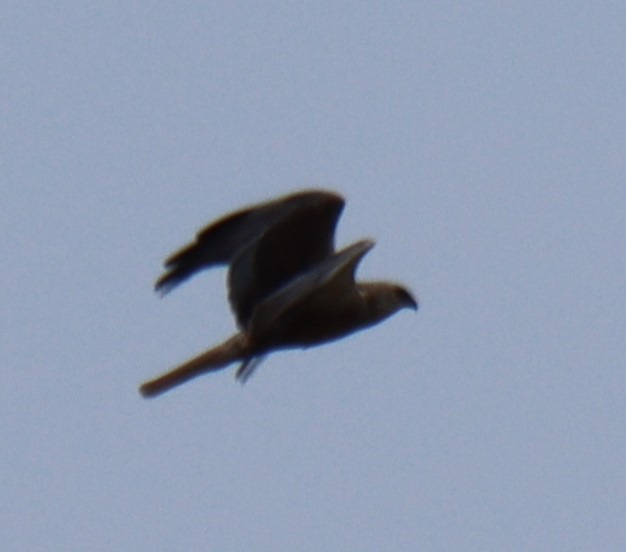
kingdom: Animalia
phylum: Chordata
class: Aves
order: Accipitriformes
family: Accipitridae
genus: Circus
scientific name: Circus aeruginosus
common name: Rørhøg
